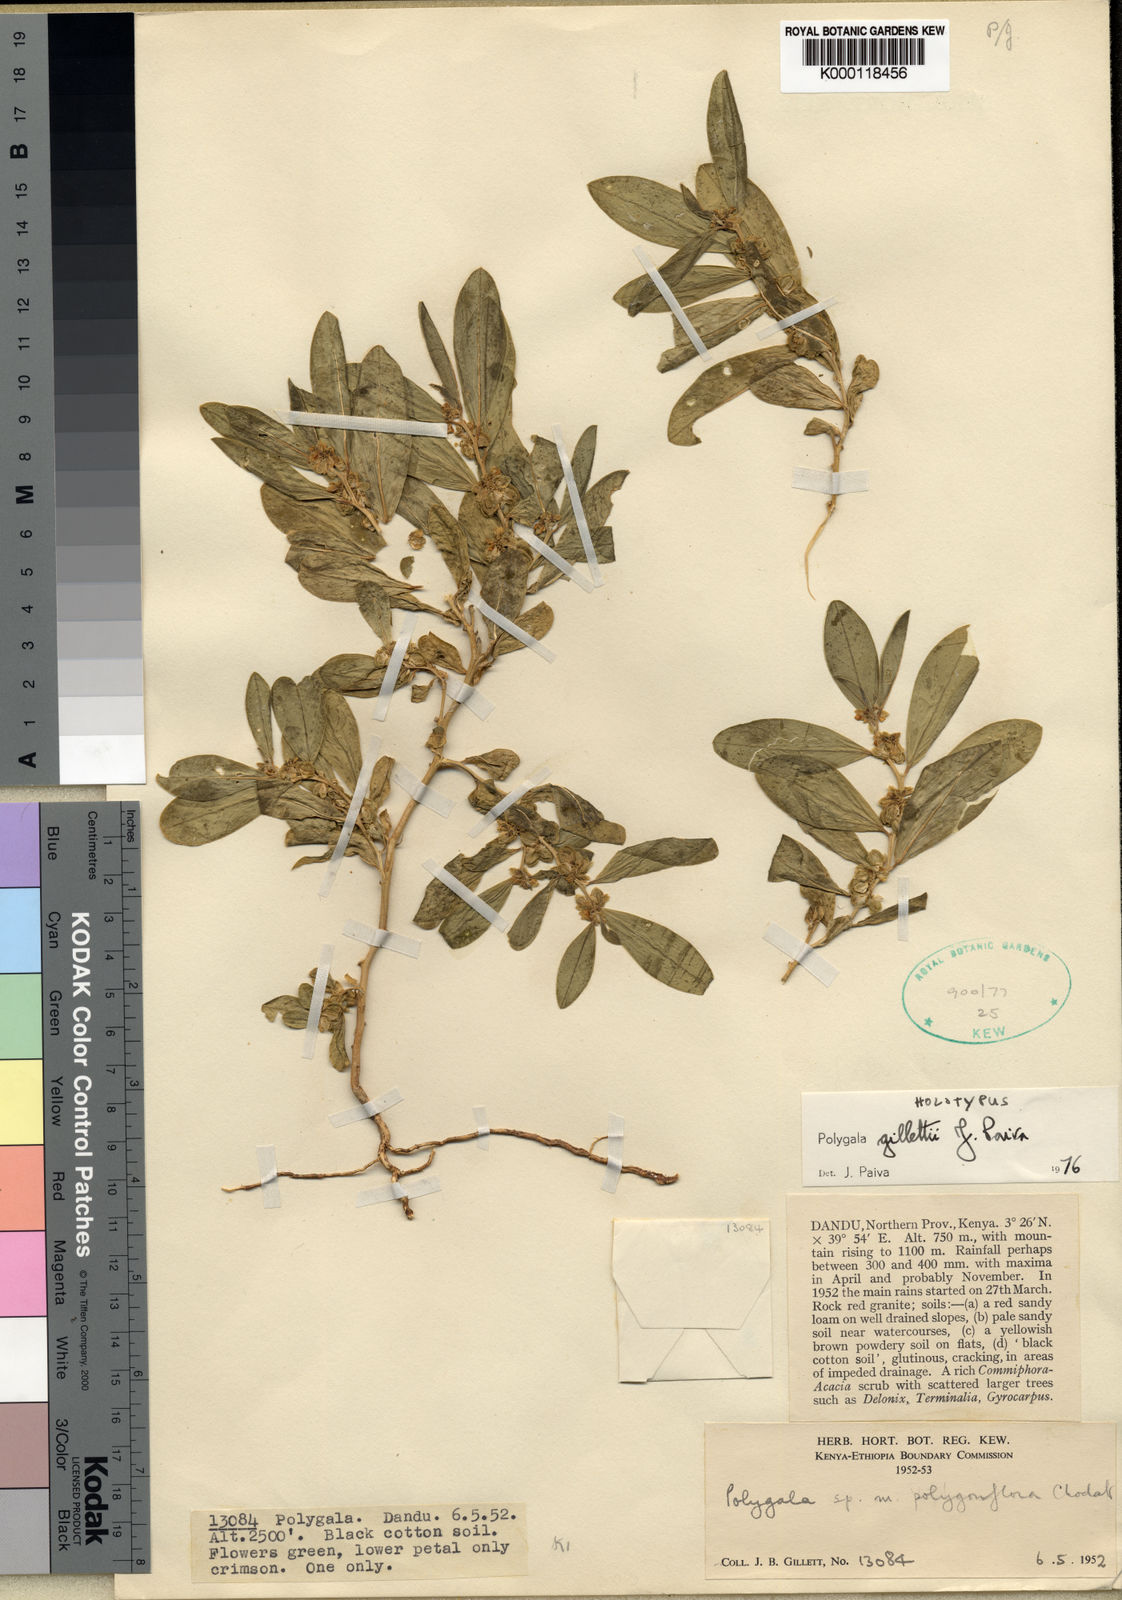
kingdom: Plantae
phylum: Tracheophyta
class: Magnoliopsida
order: Fabales
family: Polygalaceae
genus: Polygala
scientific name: Polygala sadebeckiana
